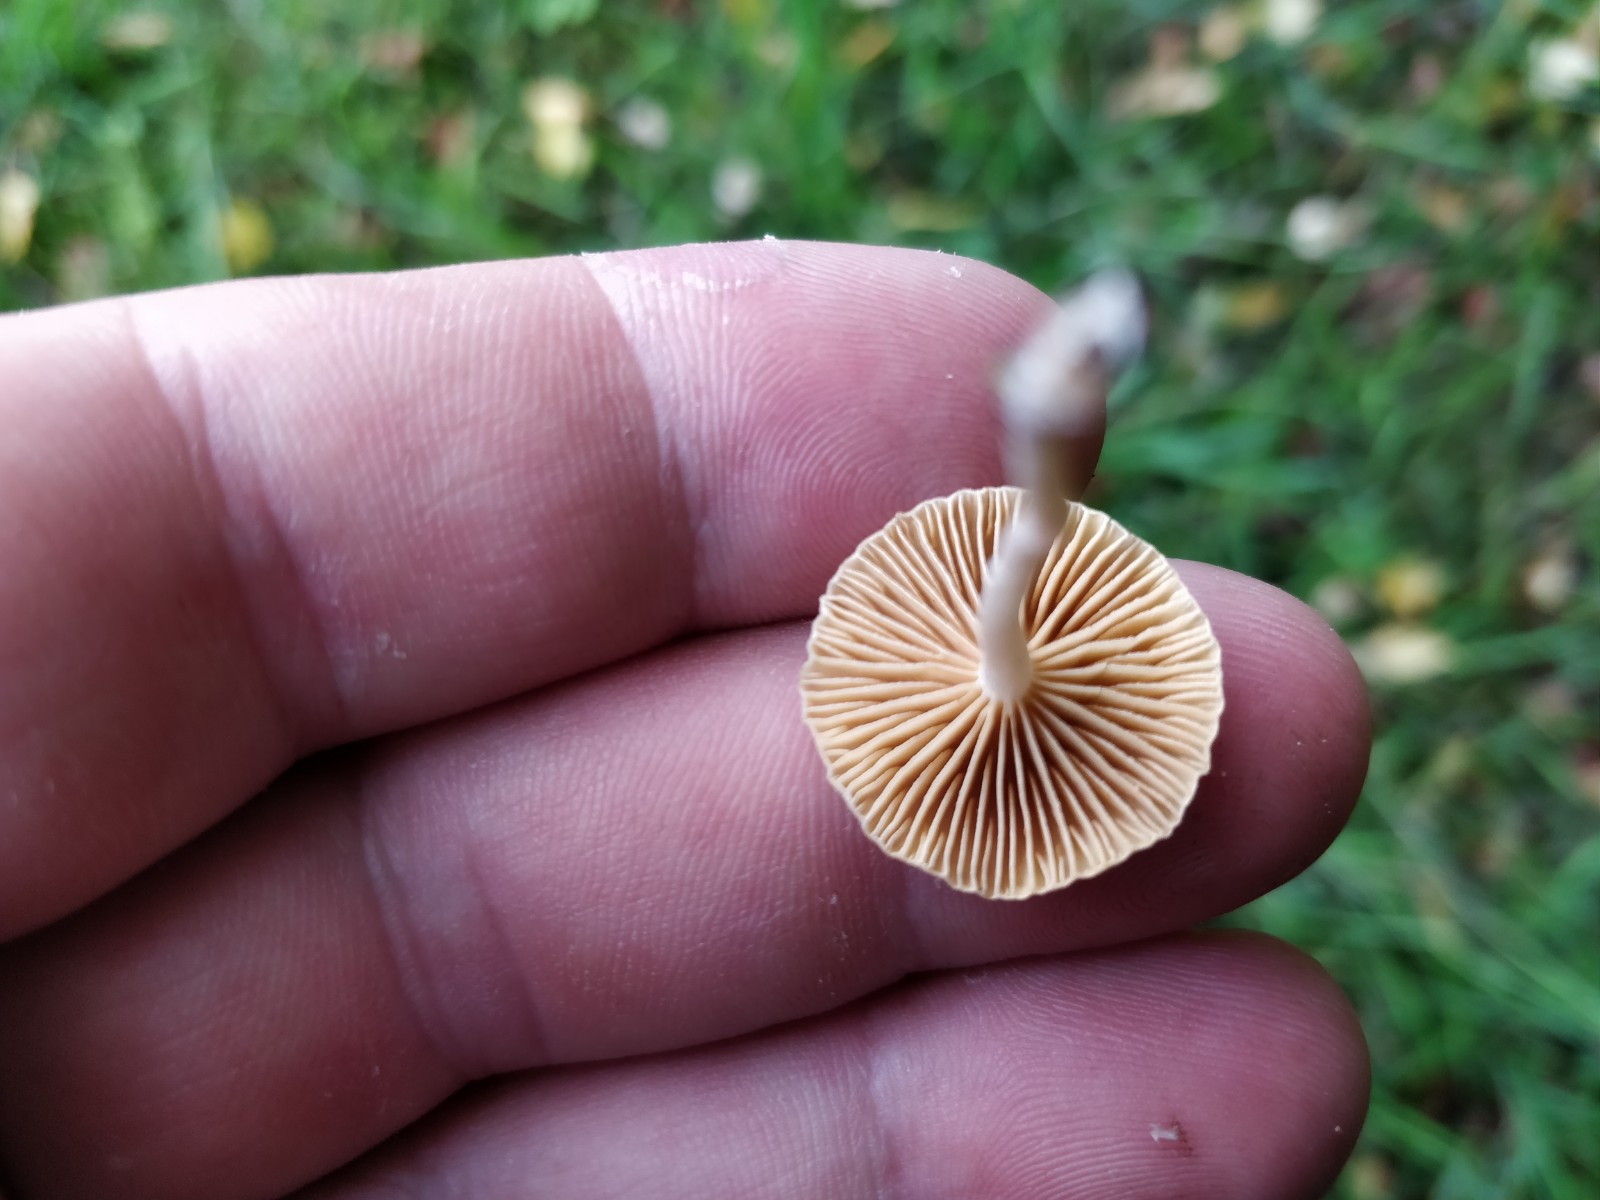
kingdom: Fungi
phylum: Basidiomycota
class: Agaricomycetes
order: Agaricales
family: Tubariaceae
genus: Tubaria
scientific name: Tubaria dispersa
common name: tjørne-fnughat
